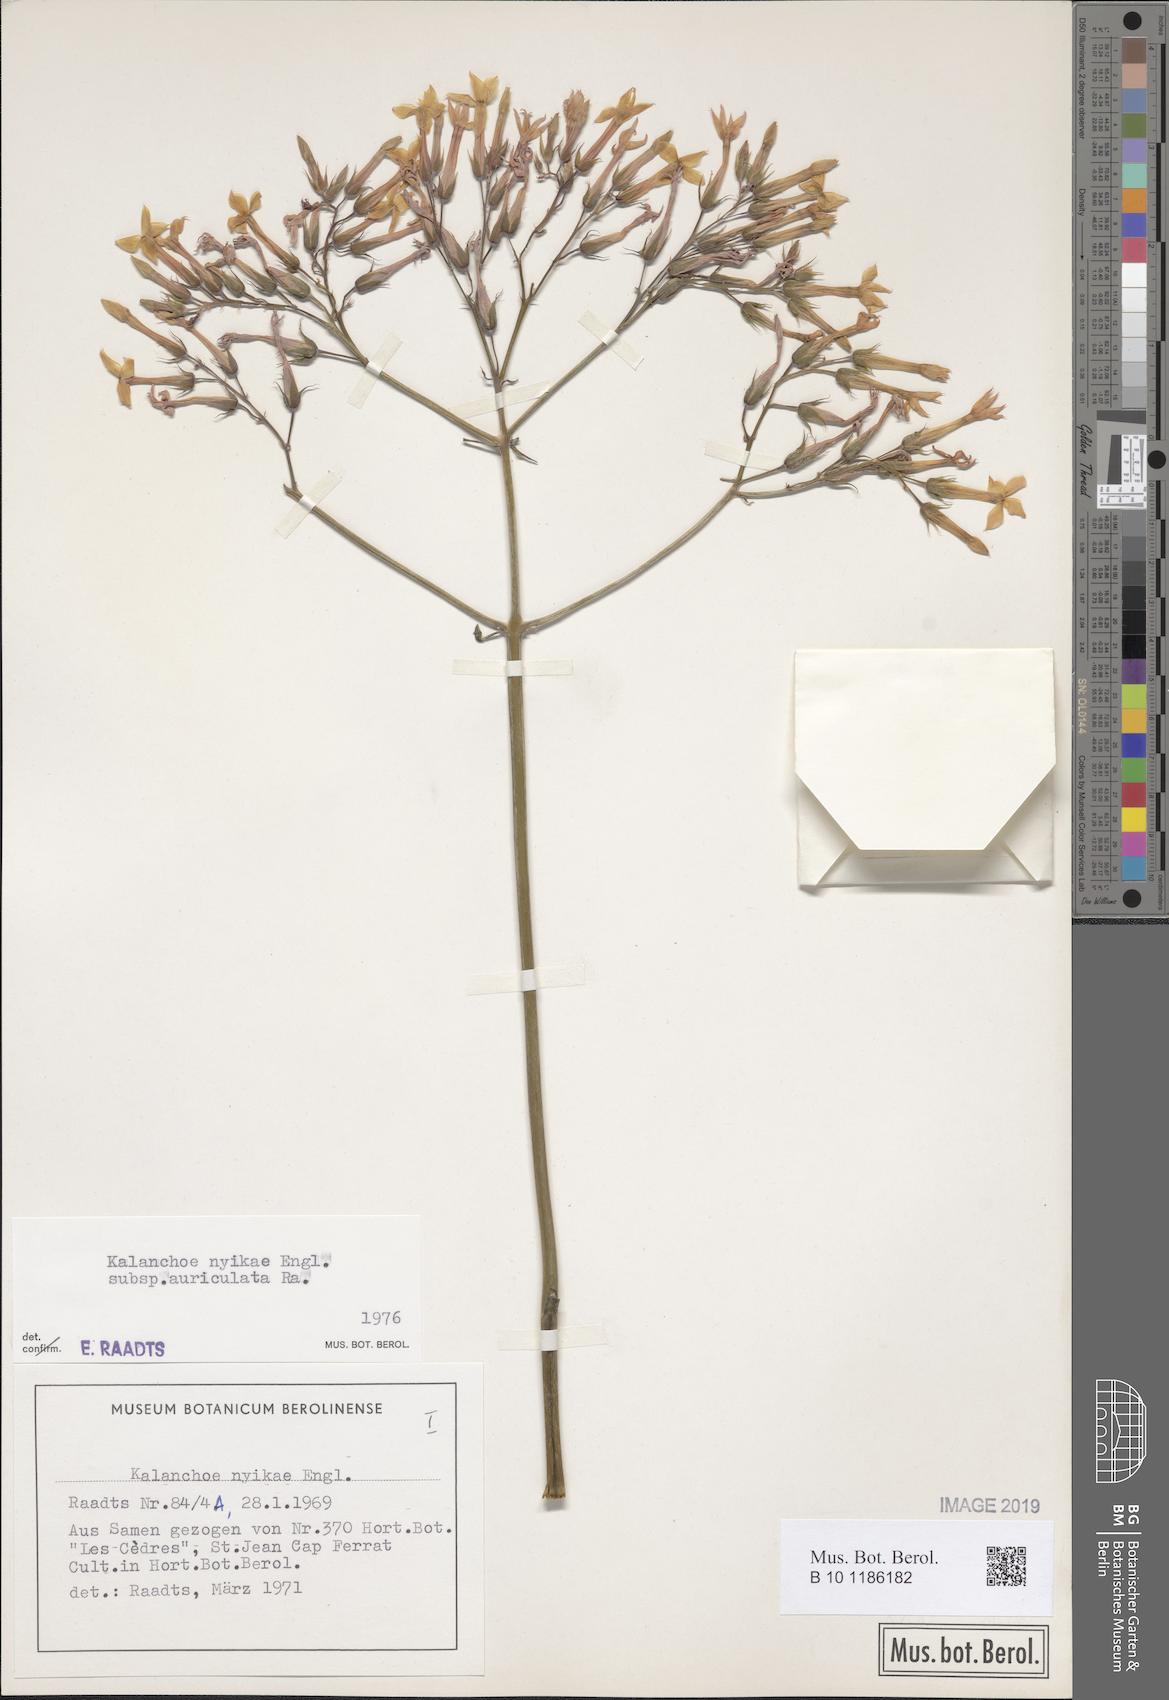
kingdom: Plantae
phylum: Tracheophyta
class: Magnoliopsida
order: Saxifragales
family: Crassulaceae
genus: Kalanchoe
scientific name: Kalanchoe auriculata
